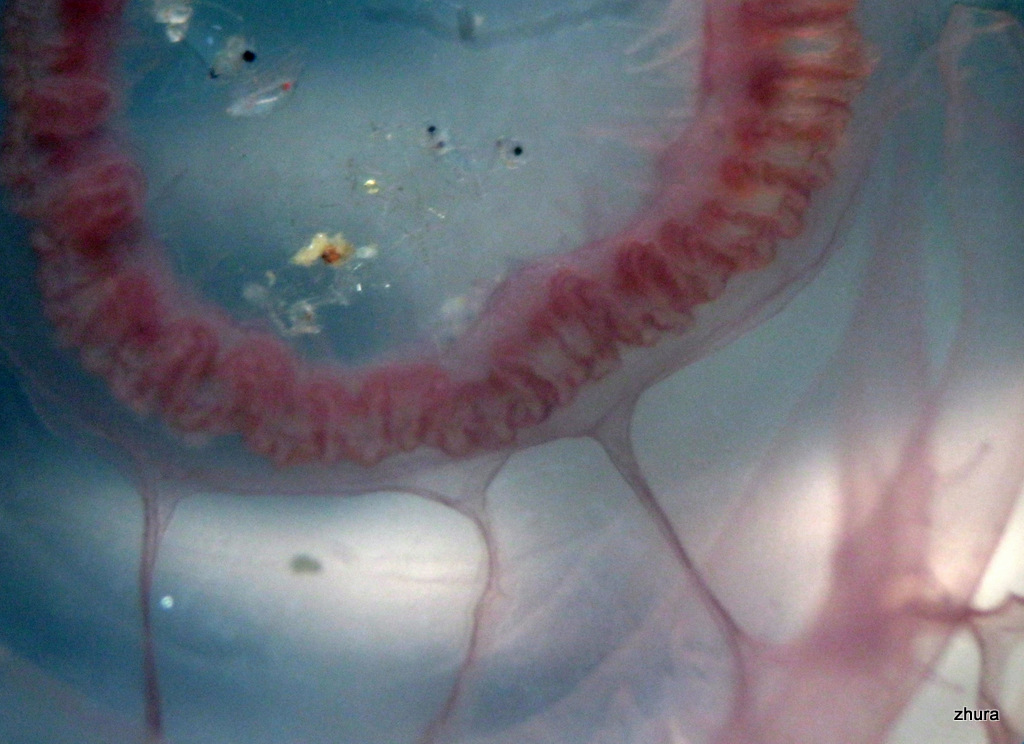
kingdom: Animalia
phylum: Cnidaria
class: Scyphozoa
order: Semaeostomeae
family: Ulmaridae
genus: Aurelia
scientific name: Aurelia aurita
